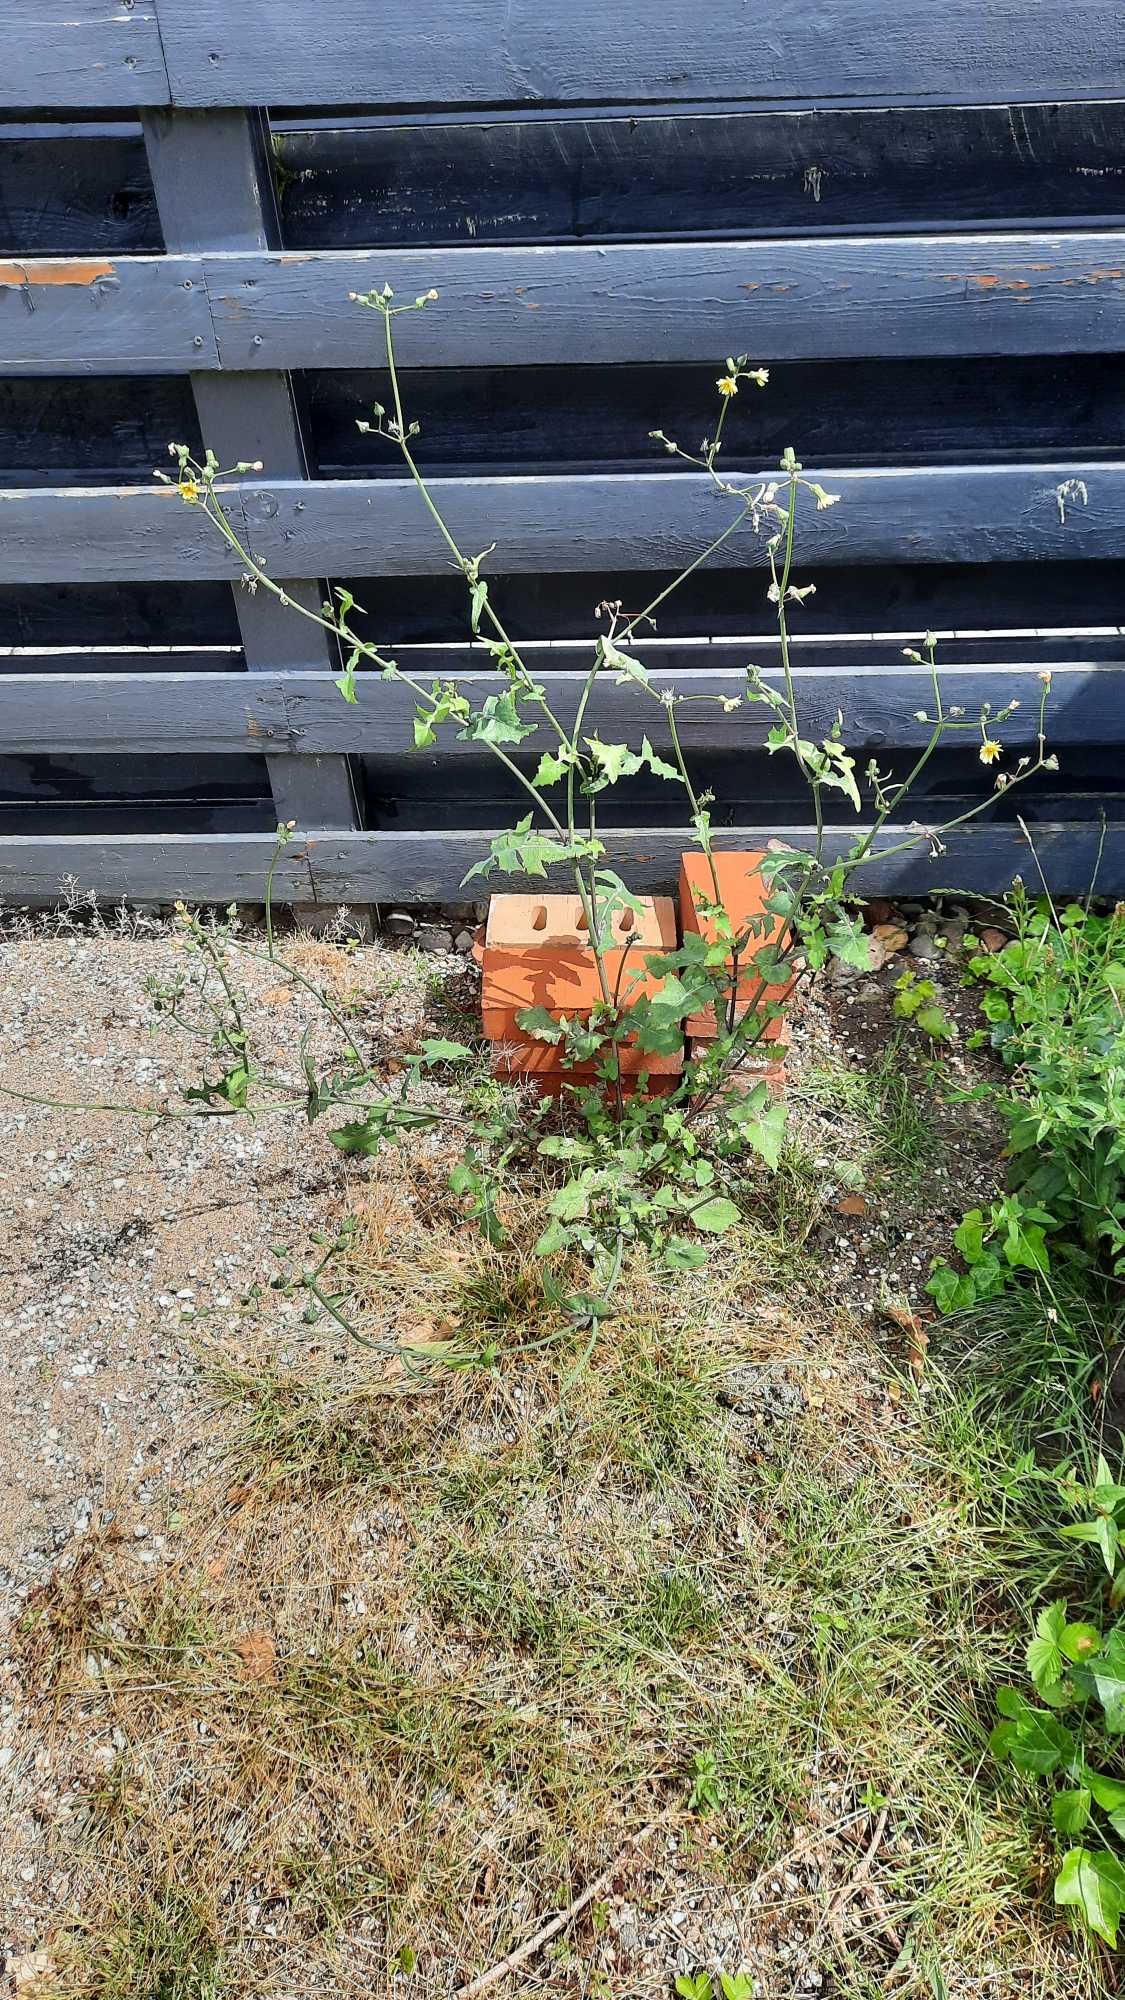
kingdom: Plantae
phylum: Tracheophyta
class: Magnoliopsida
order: Asterales
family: Asteraceae
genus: Sonchus
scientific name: Sonchus oleraceus
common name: Almindelig svinemælk
